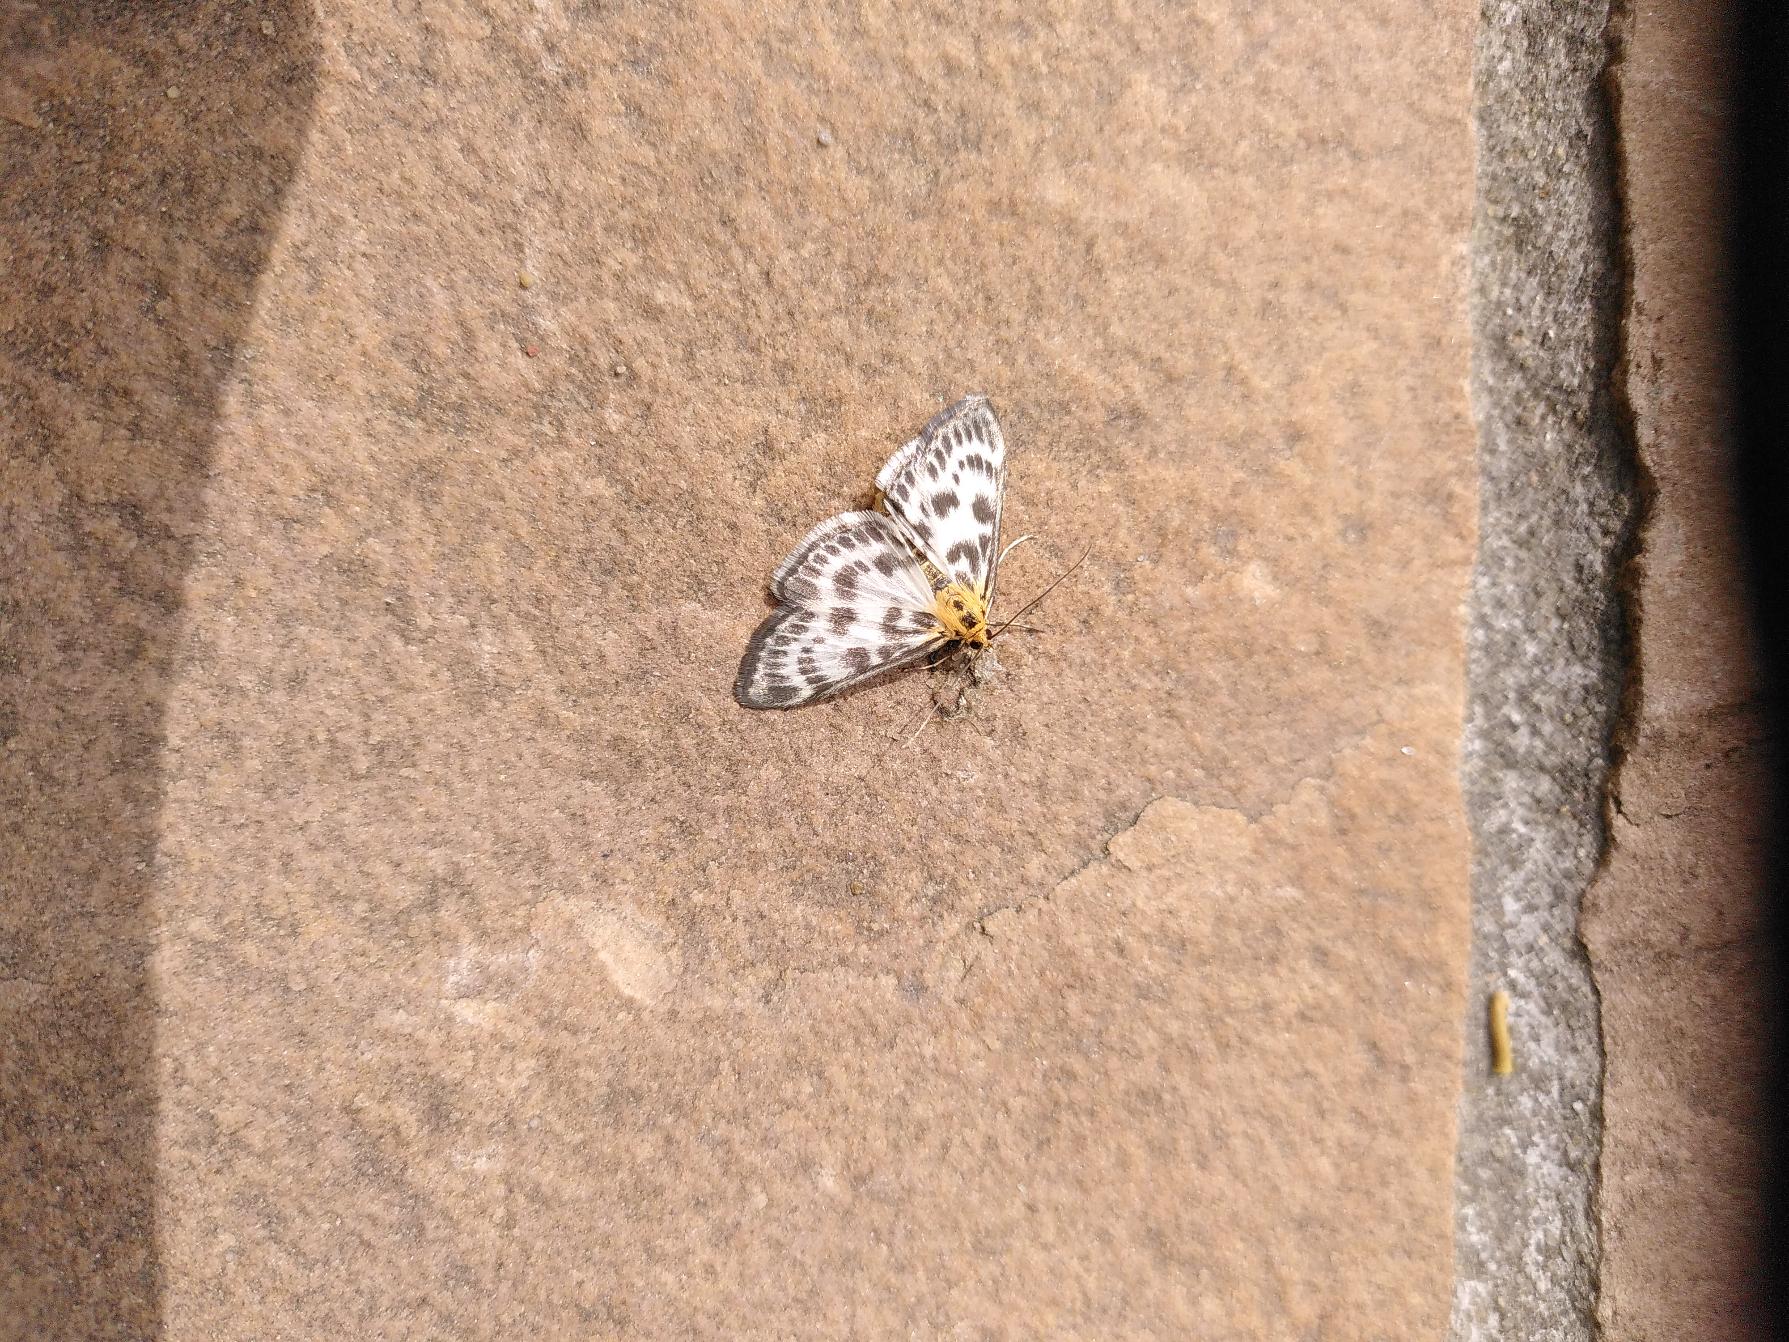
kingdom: Animalia
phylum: Arthropoda
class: Insecta
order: Lepidoptera
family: Crambidae
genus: Anania
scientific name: Anania hortulata
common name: Nældehalvmøl
